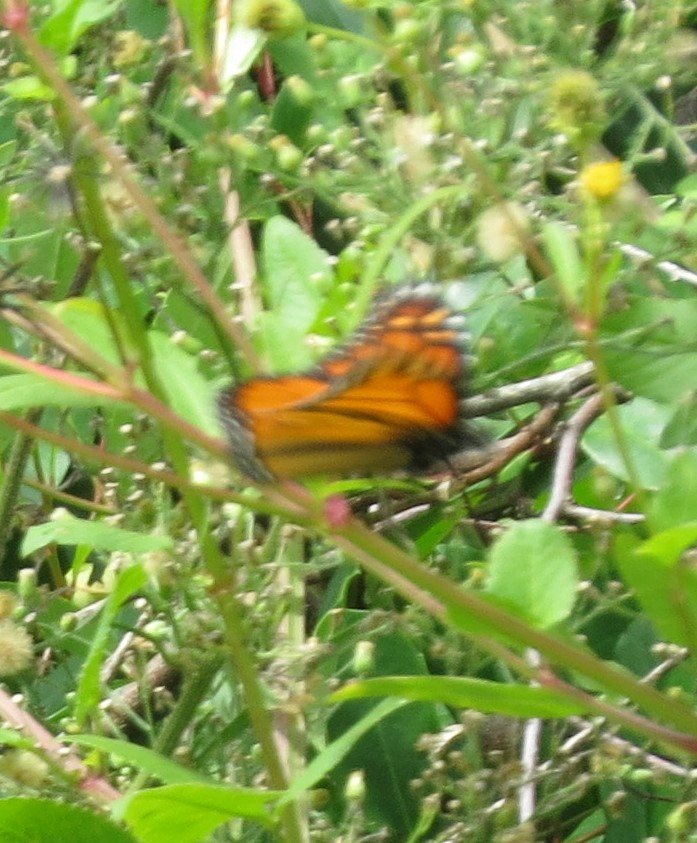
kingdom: Animalia
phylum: Arthropoda
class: Insecta
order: Lepidoptera
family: Nymphalidae
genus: Danaus
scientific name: Danaus plexippus
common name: Monarch
